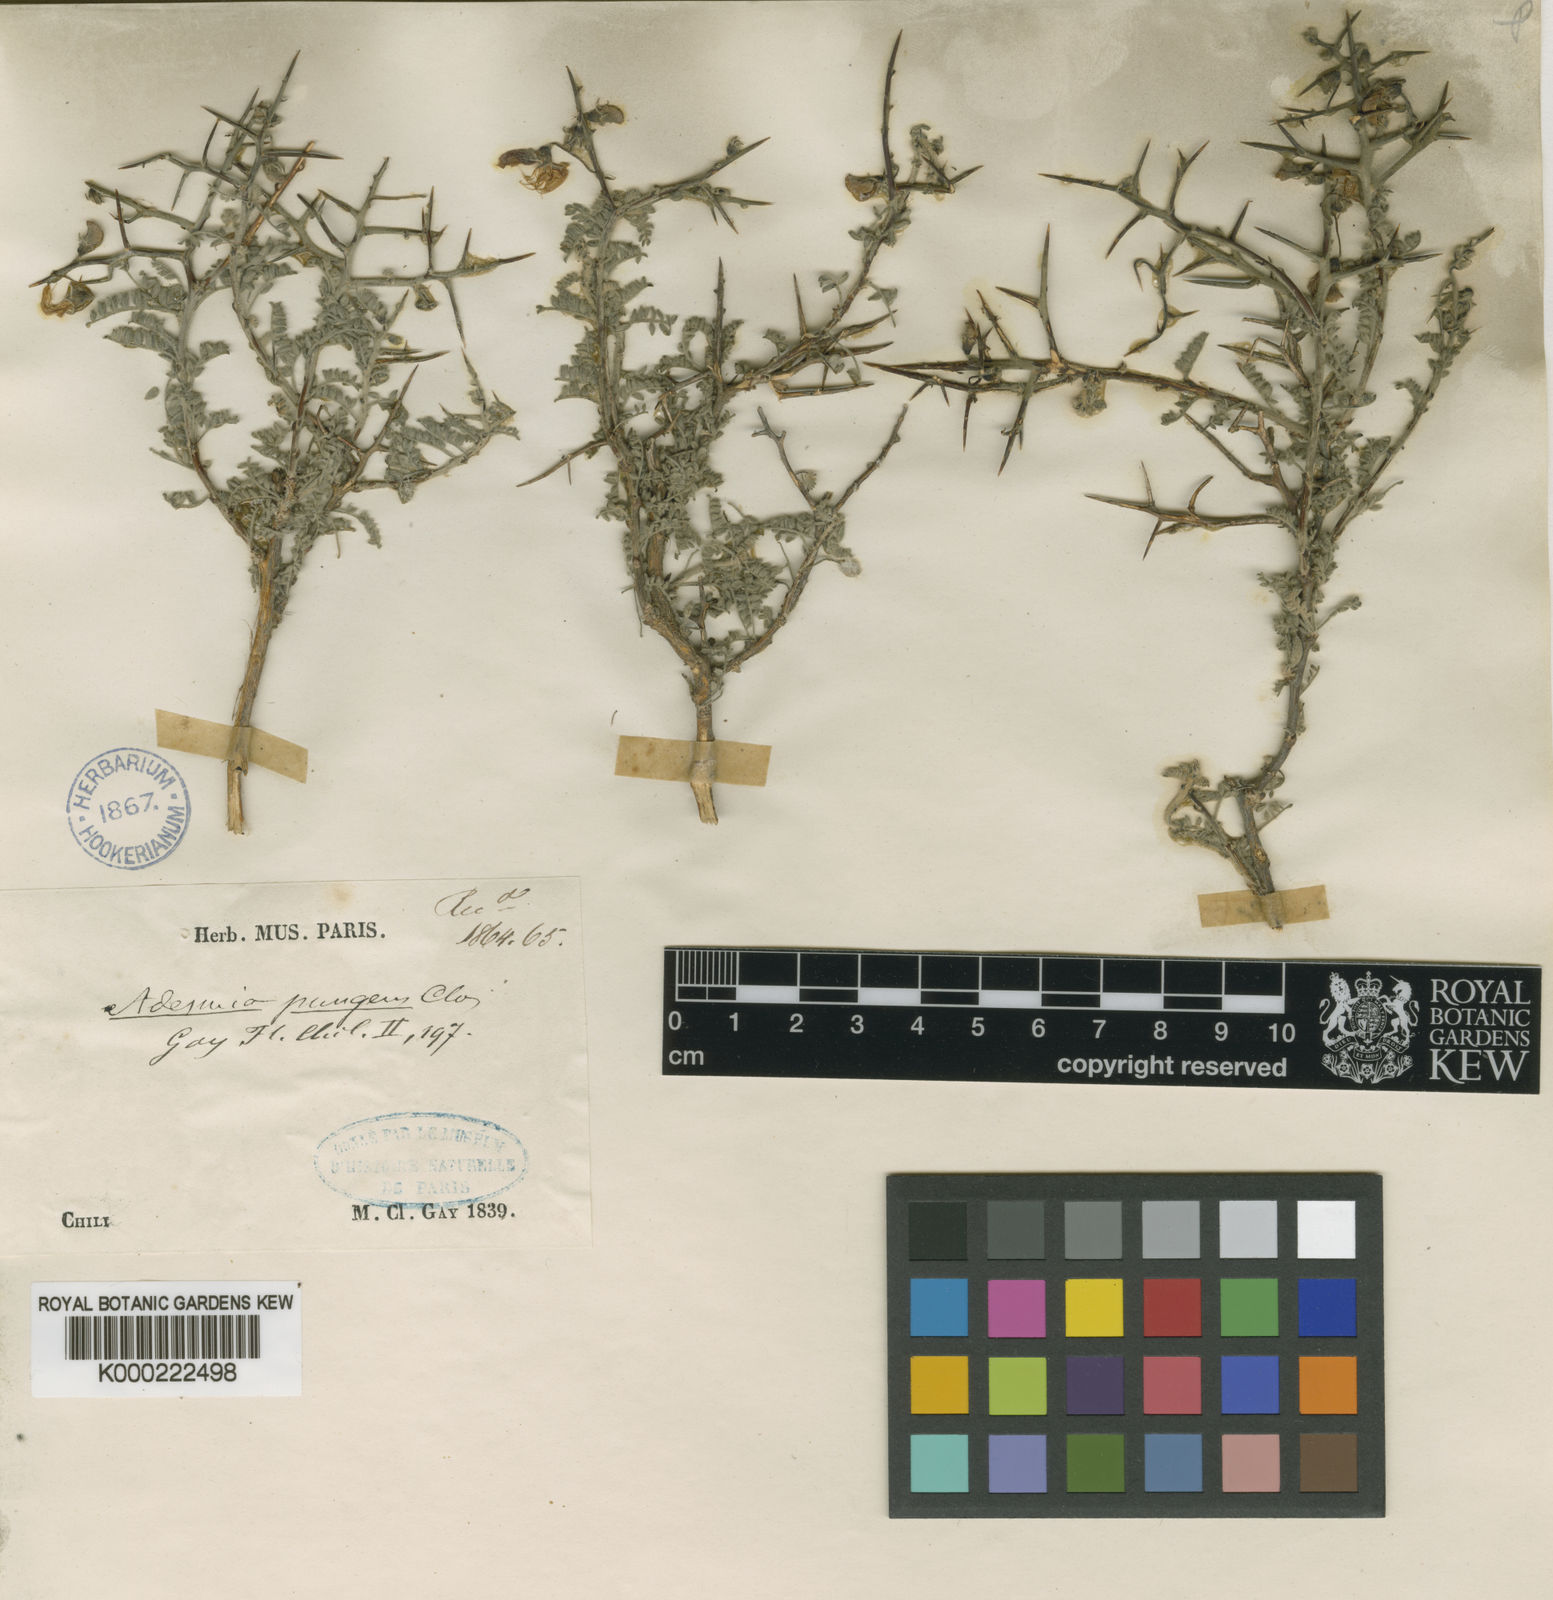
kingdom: Plantae
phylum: Tracheophyta
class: Magnoliopsida
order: Fabales
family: Fabaceae
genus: Adesmia
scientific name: Adesmia pungens
